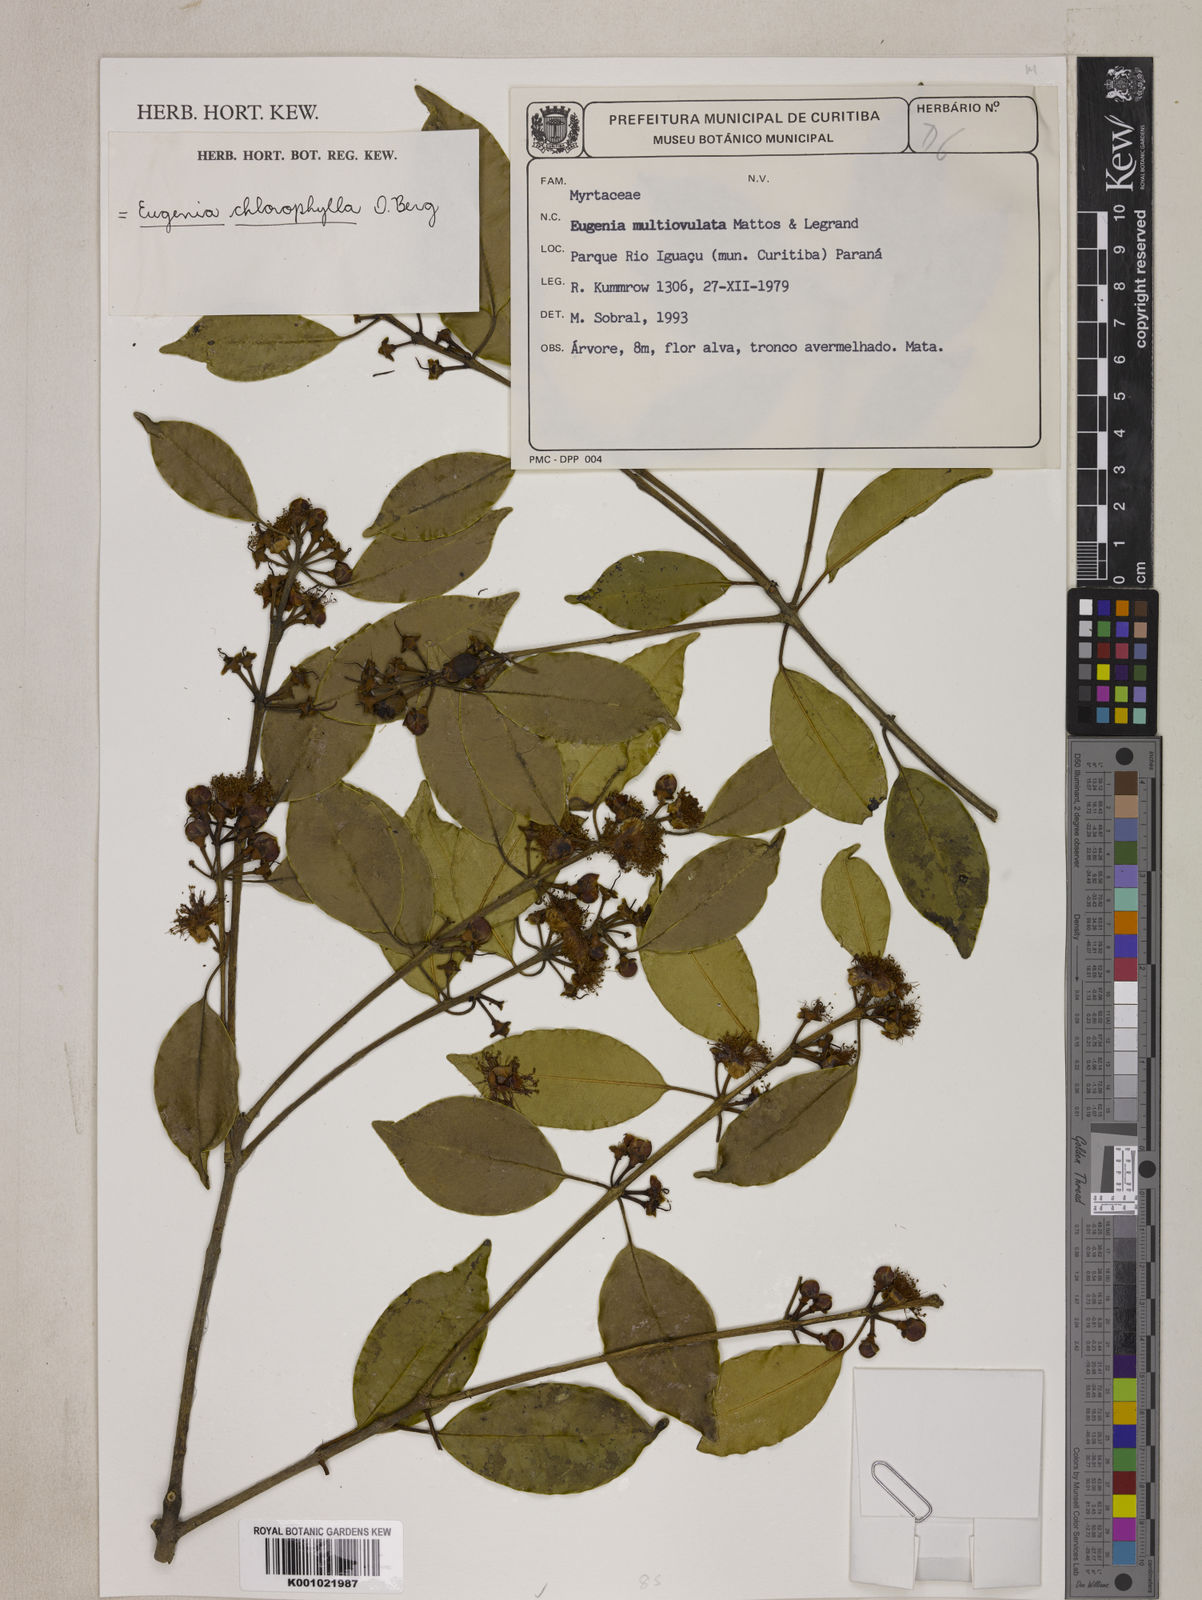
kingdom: Plantae
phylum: Tracheophyta
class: Magnoliopsida
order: Myrtales
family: Myrtaceae
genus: Eugenia
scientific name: Eugenia chlorophylla
